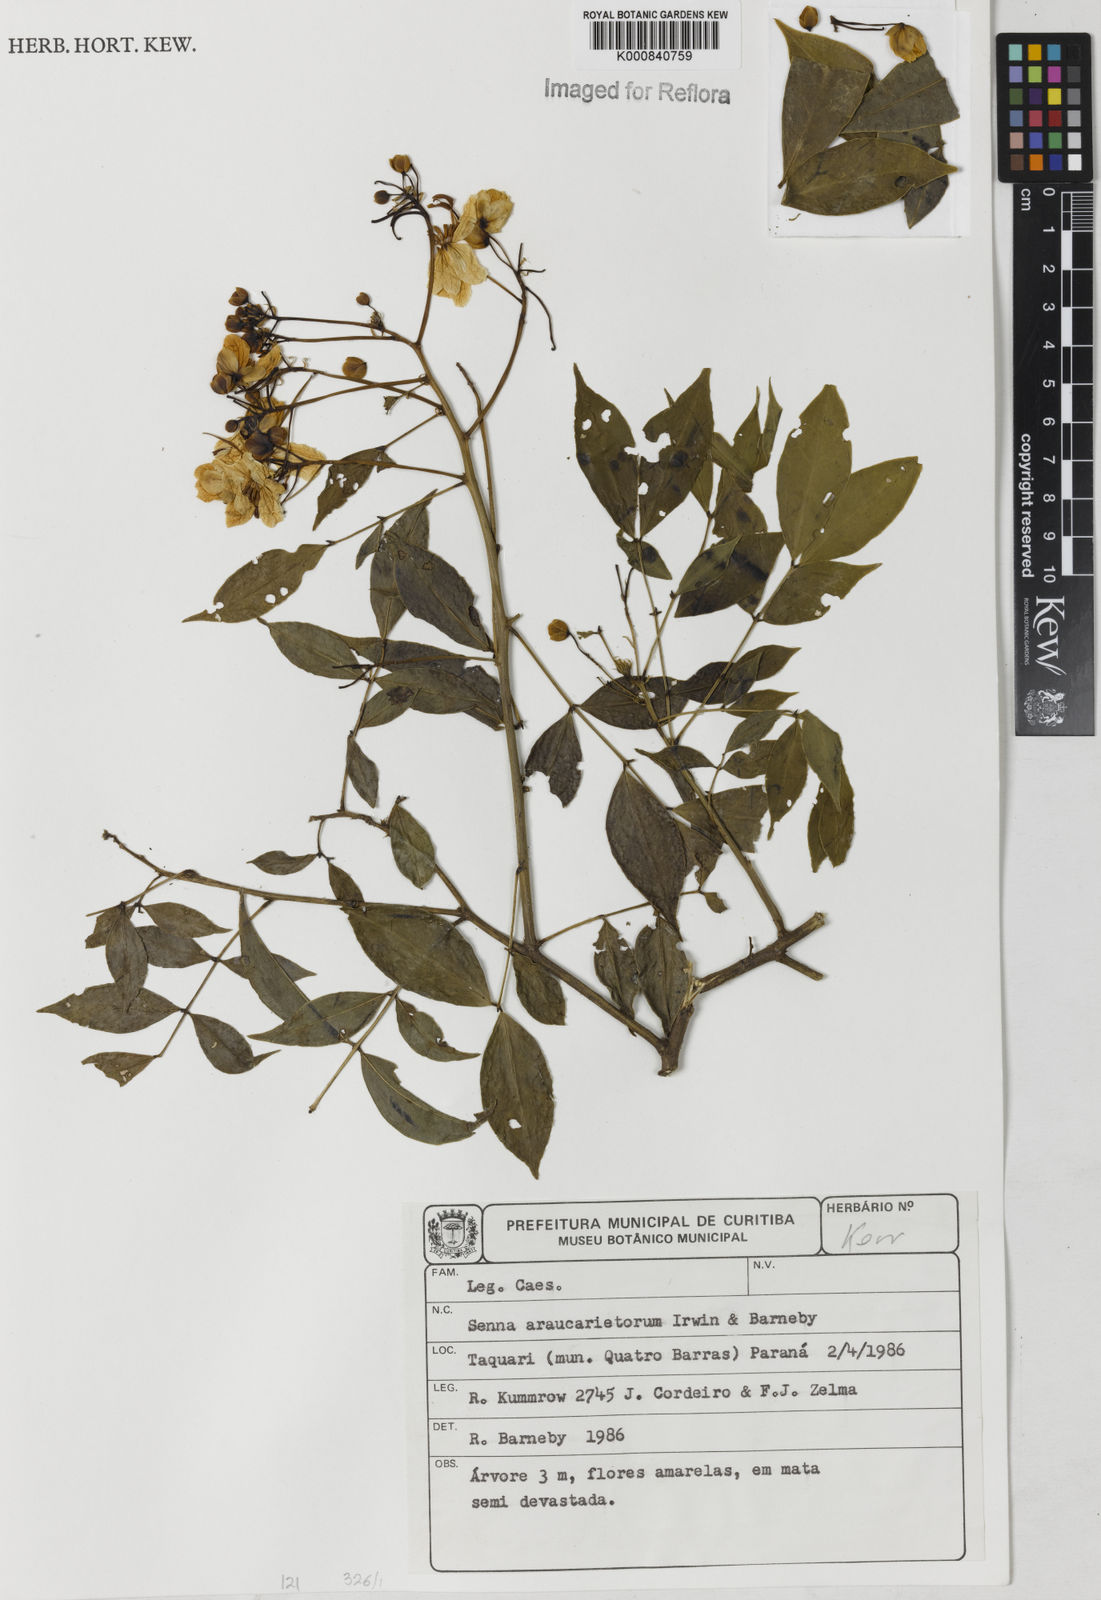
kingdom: Plantae
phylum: Tracheophyta
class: Magnoliopsida
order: Fabales
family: Fabaceae
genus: Senna
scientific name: Senna araucarietorum
